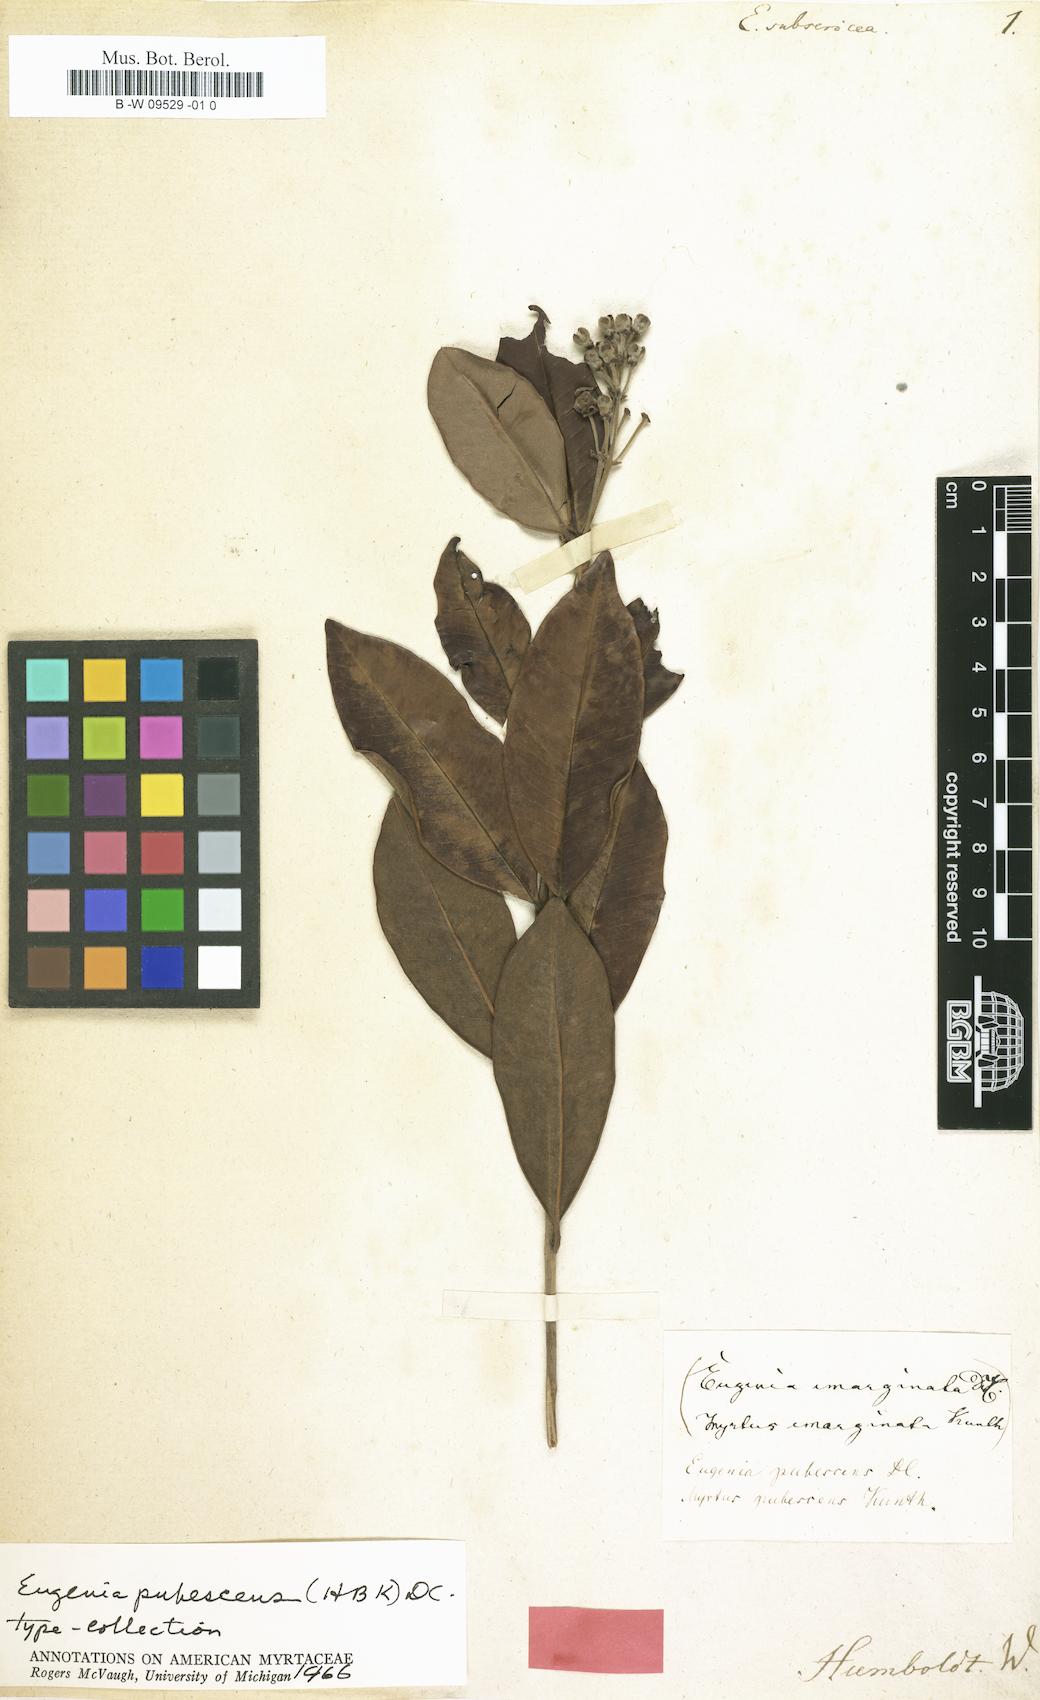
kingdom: Plantae
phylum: Tracheophyta
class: Magnoliopsida
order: Myrtales
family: Myrtaceae
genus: Eugenia
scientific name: Eugenia
